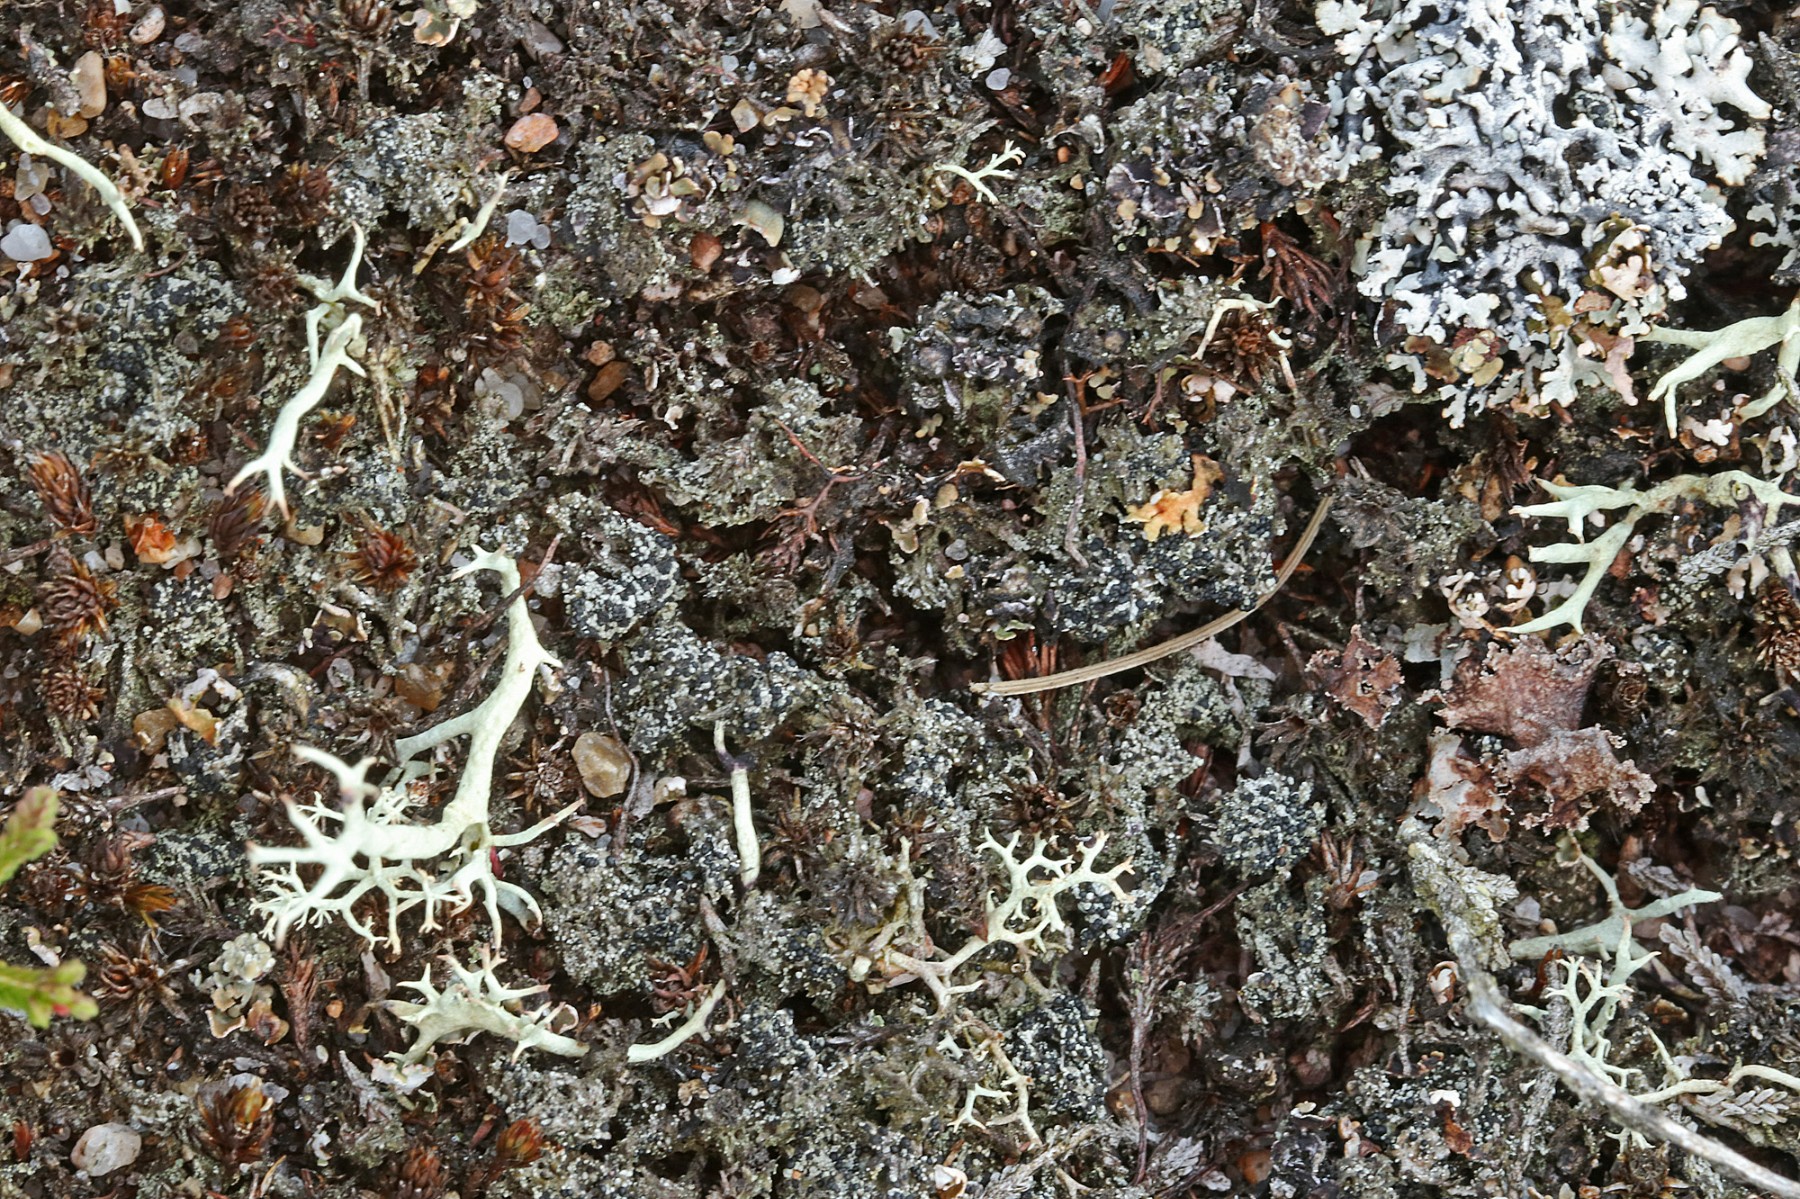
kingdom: Fungi
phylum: Ascomycota
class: Lecanoromycetes
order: Lecanorales
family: Byssolomataceae
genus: Micarea
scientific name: Micarea lignaria
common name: tørve-knaplav
